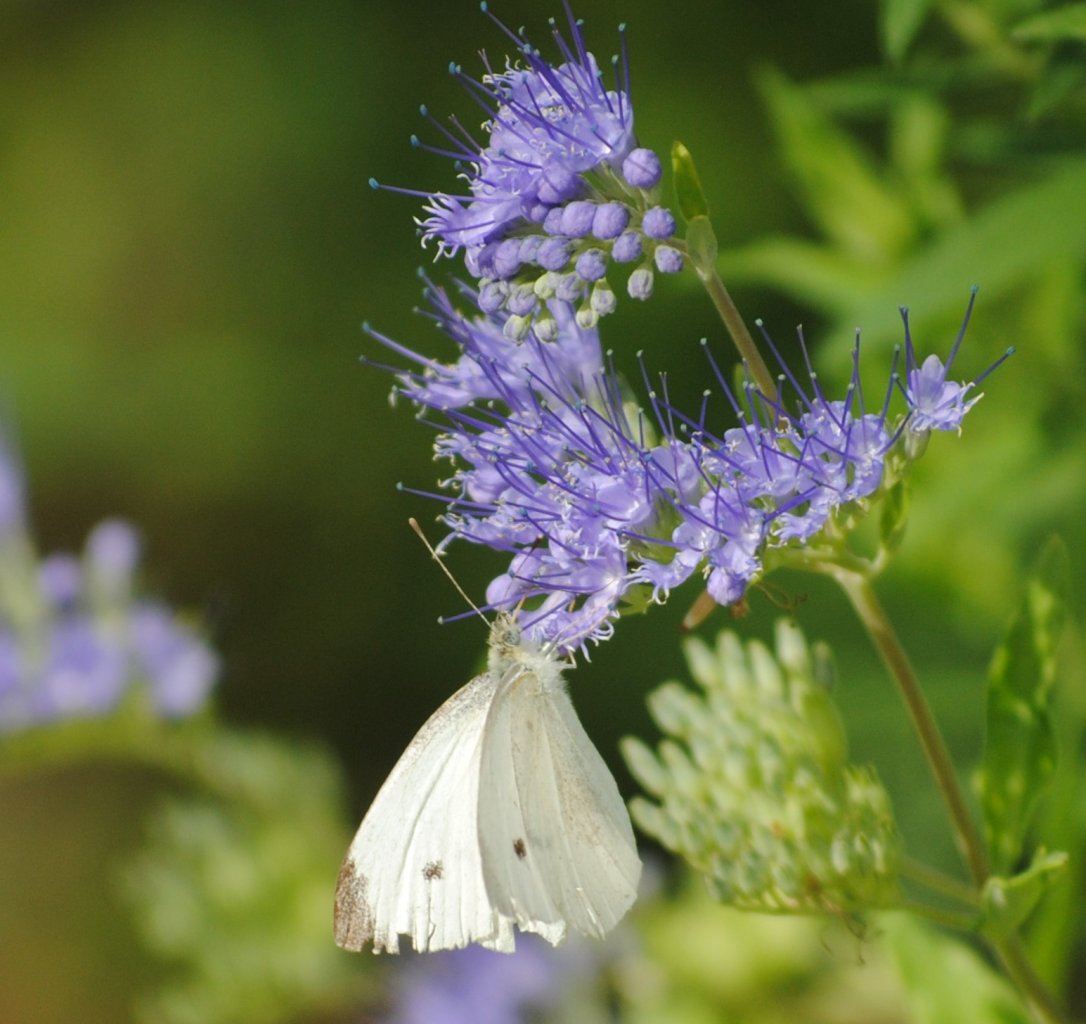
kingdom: Animalia
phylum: Arthropoda
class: Insecta
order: Lepidoptera
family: Pieridae
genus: Pieris
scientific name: Pieris rapae
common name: Cabbage White
